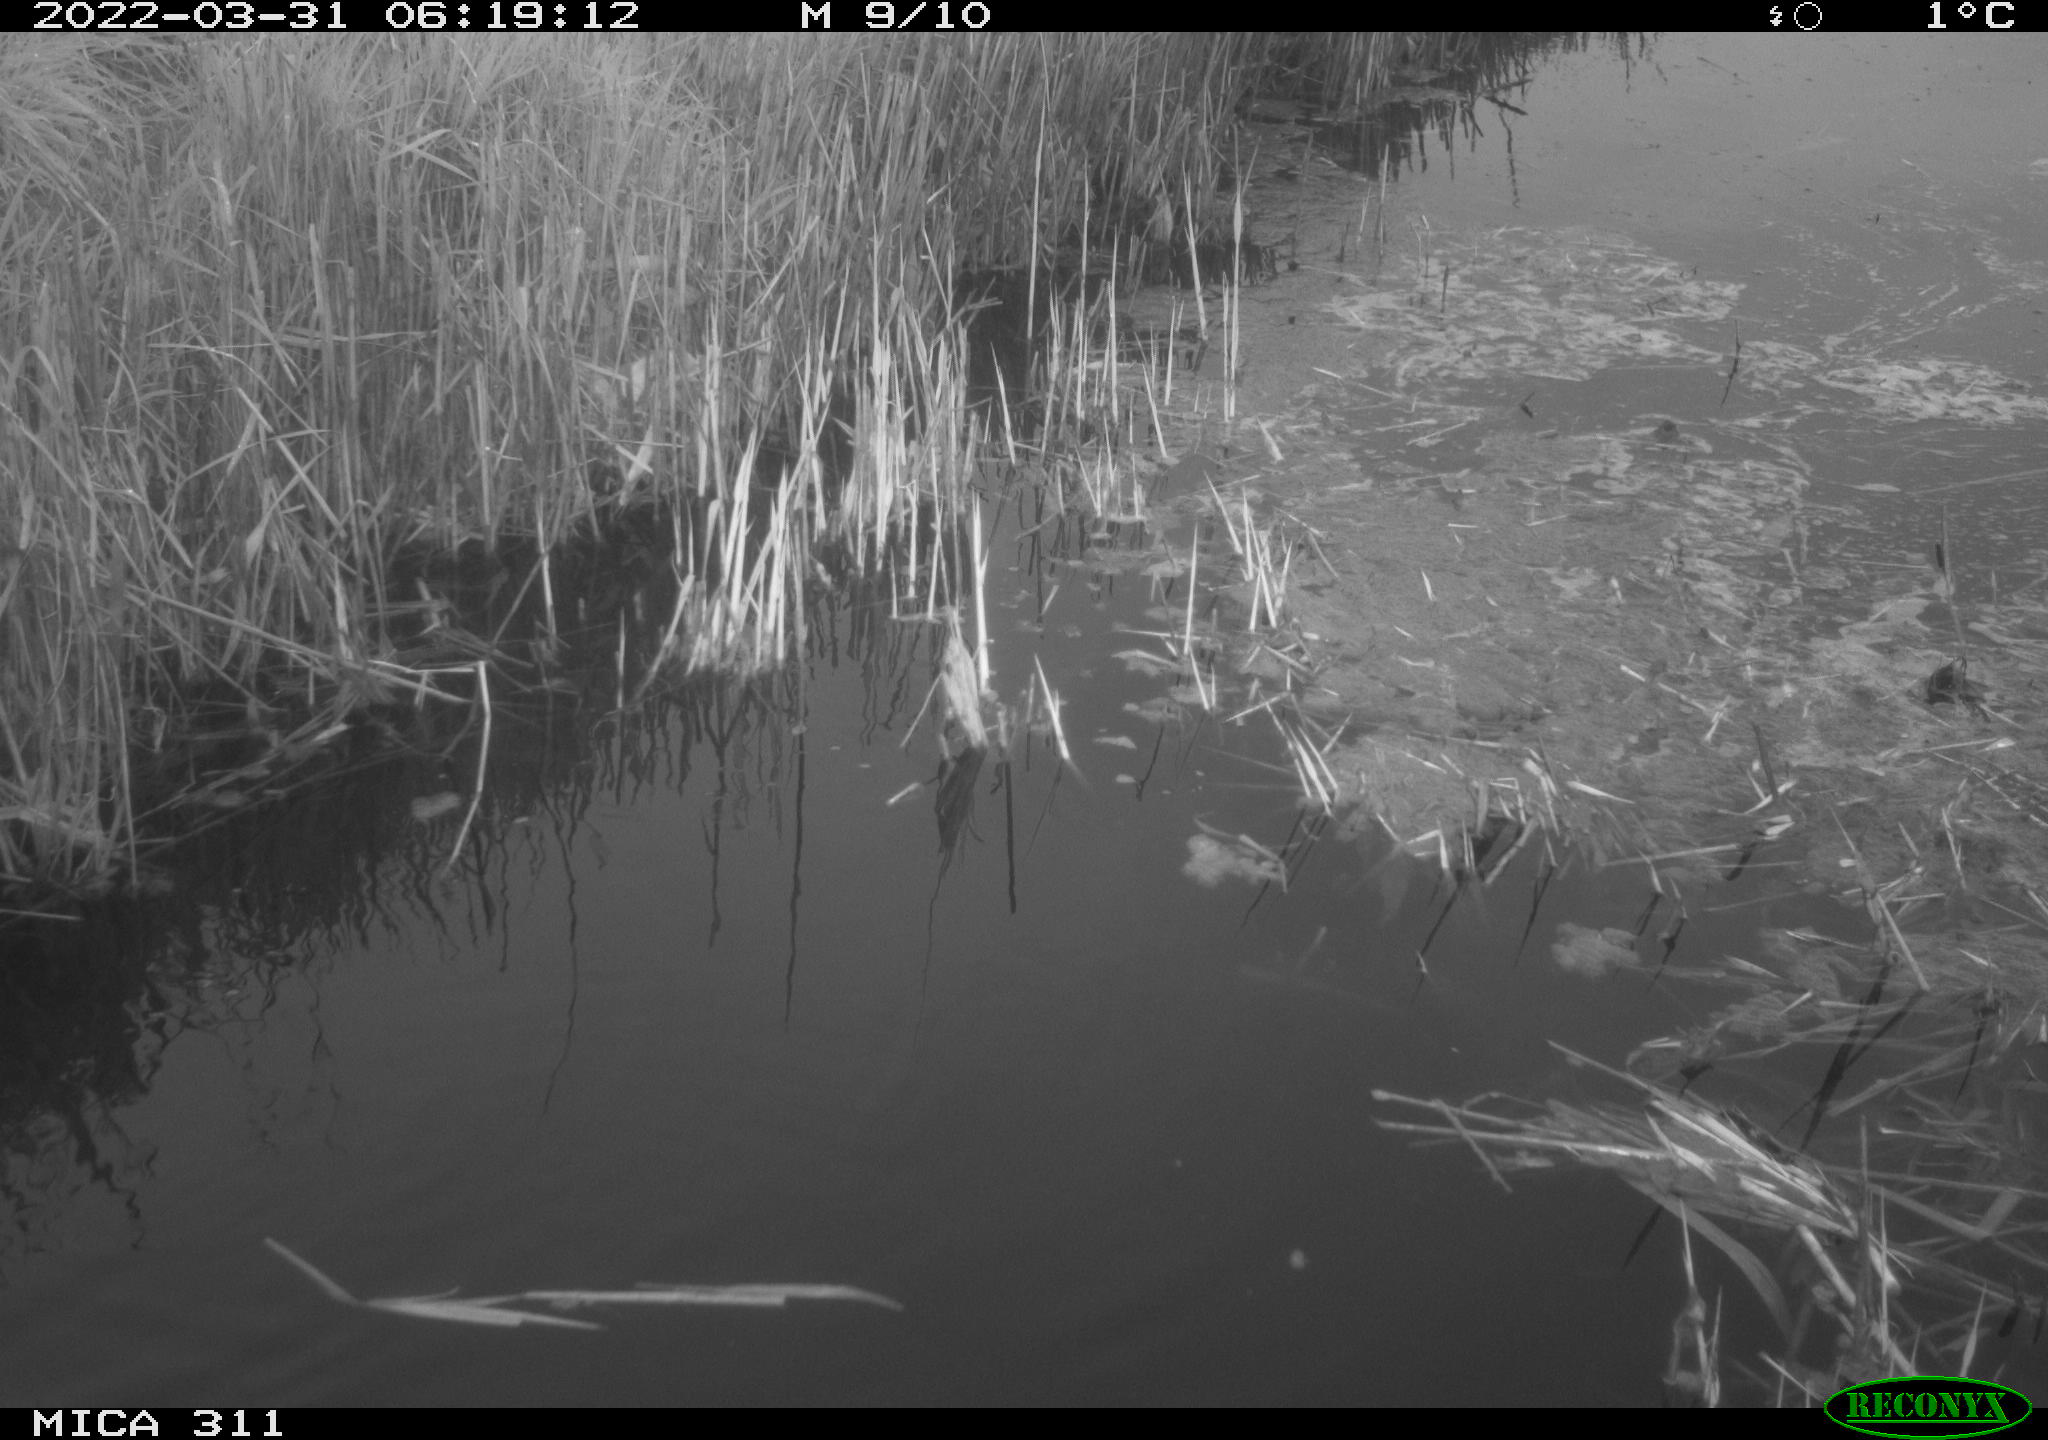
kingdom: Animalia
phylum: Chordata
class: Aves
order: Gruiformes
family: Rallidae
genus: Fulica
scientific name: Fulica atra
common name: Eurasian coot
